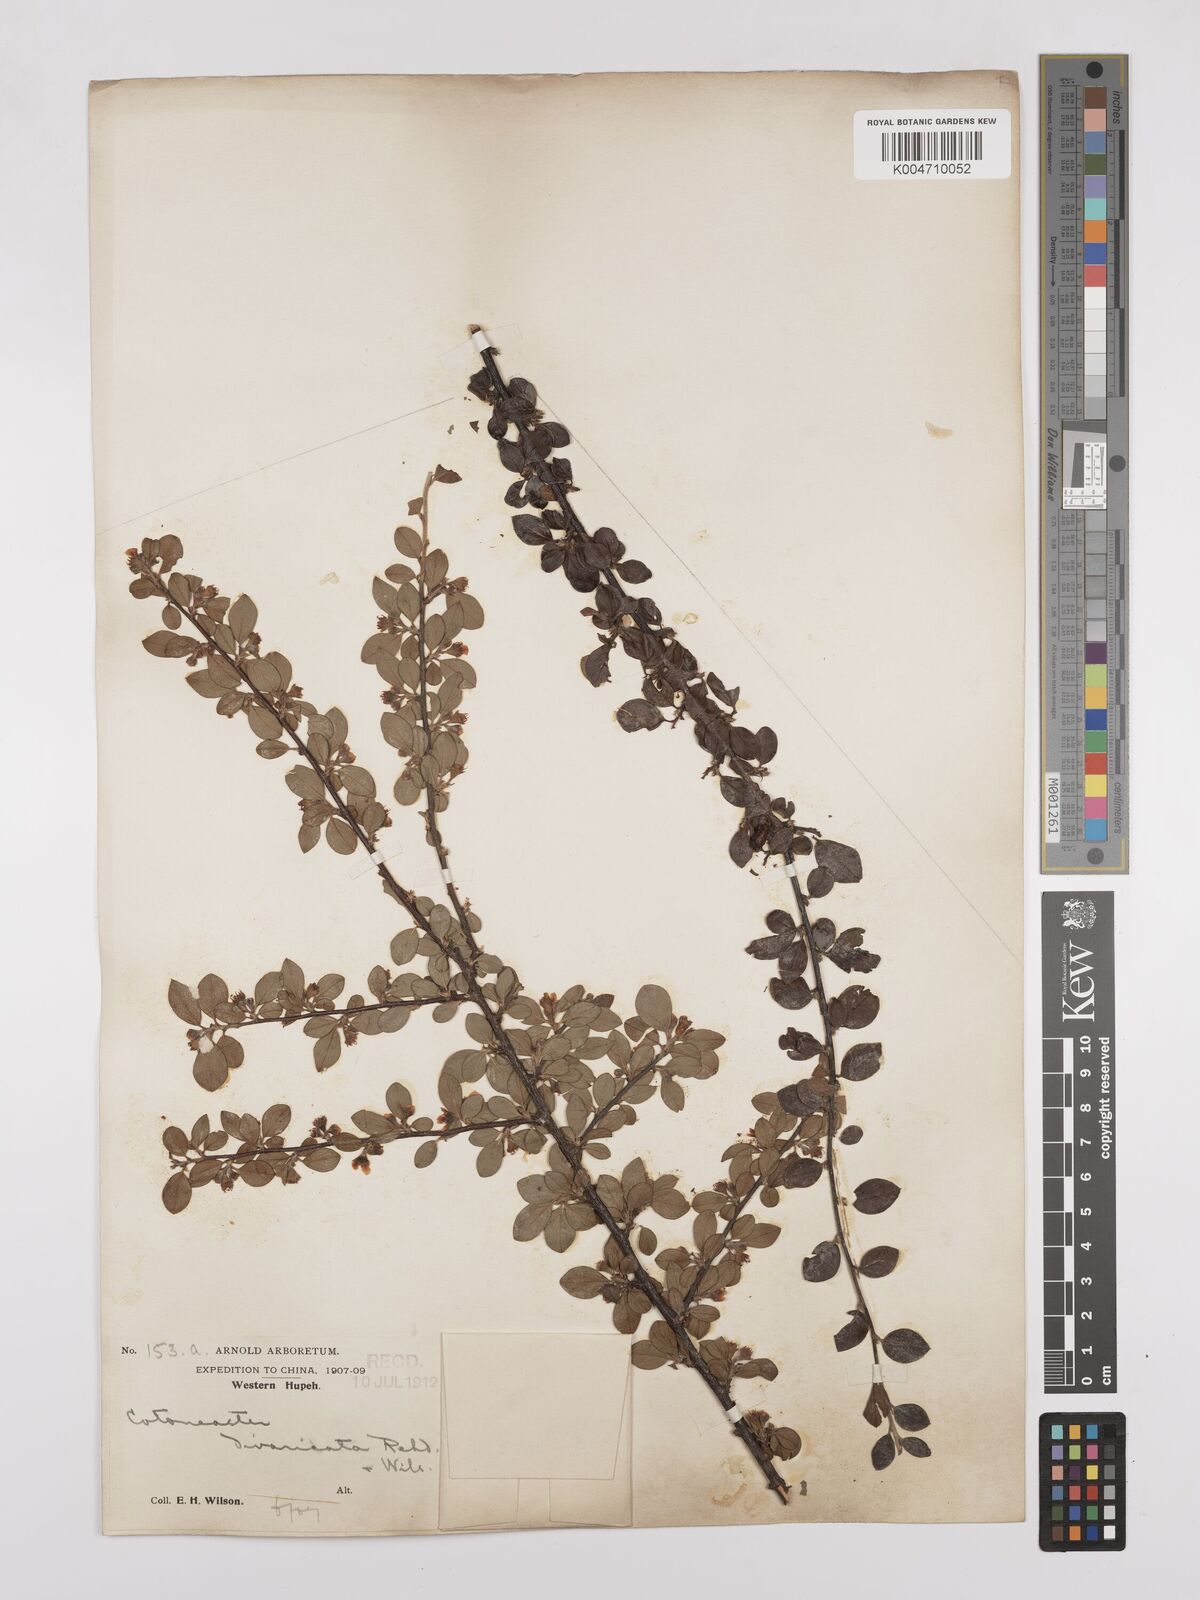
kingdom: Plantae
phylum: Tracheophyta
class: Magnoliopsida
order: Rosales
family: Rosaceae
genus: Cotoneaster
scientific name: Cotoneaster divaricatus
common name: Spreading cotoneaster
